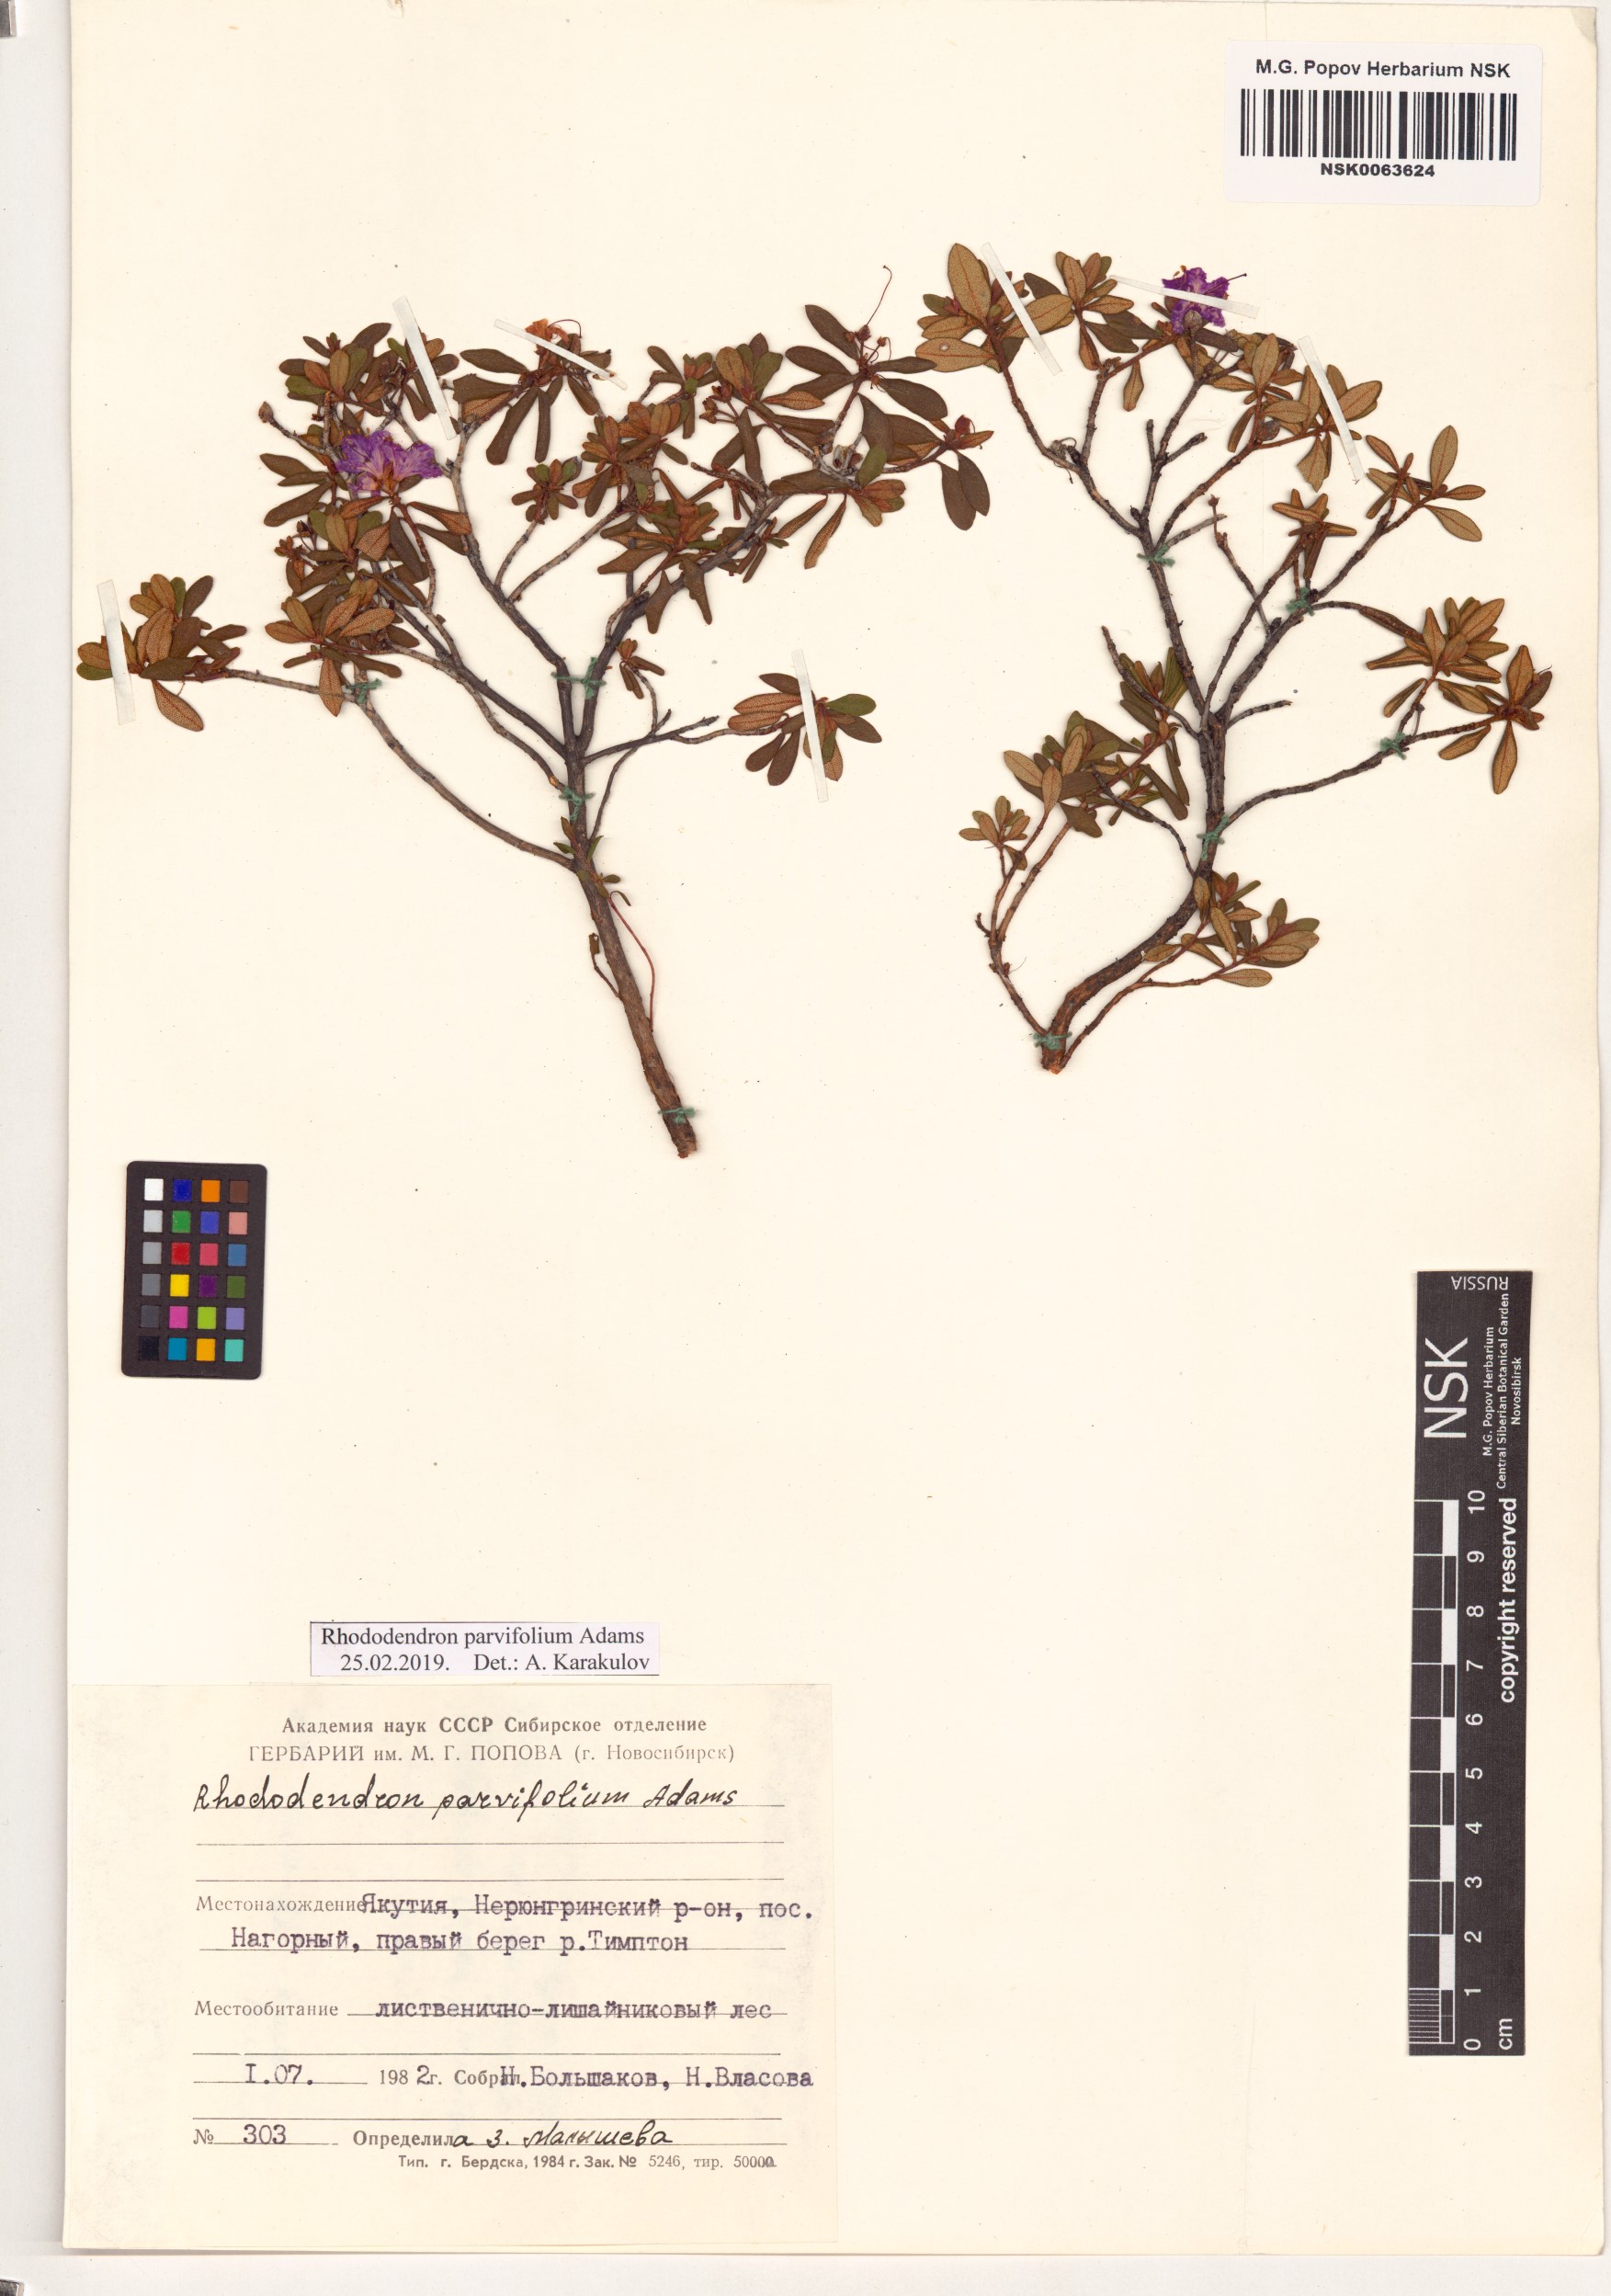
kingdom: Plantae
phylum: Tracheophyta
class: Magnoliopsida
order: Ericales
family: Ericaceae
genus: Rhododendron
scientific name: Rhododendron parvifolium
